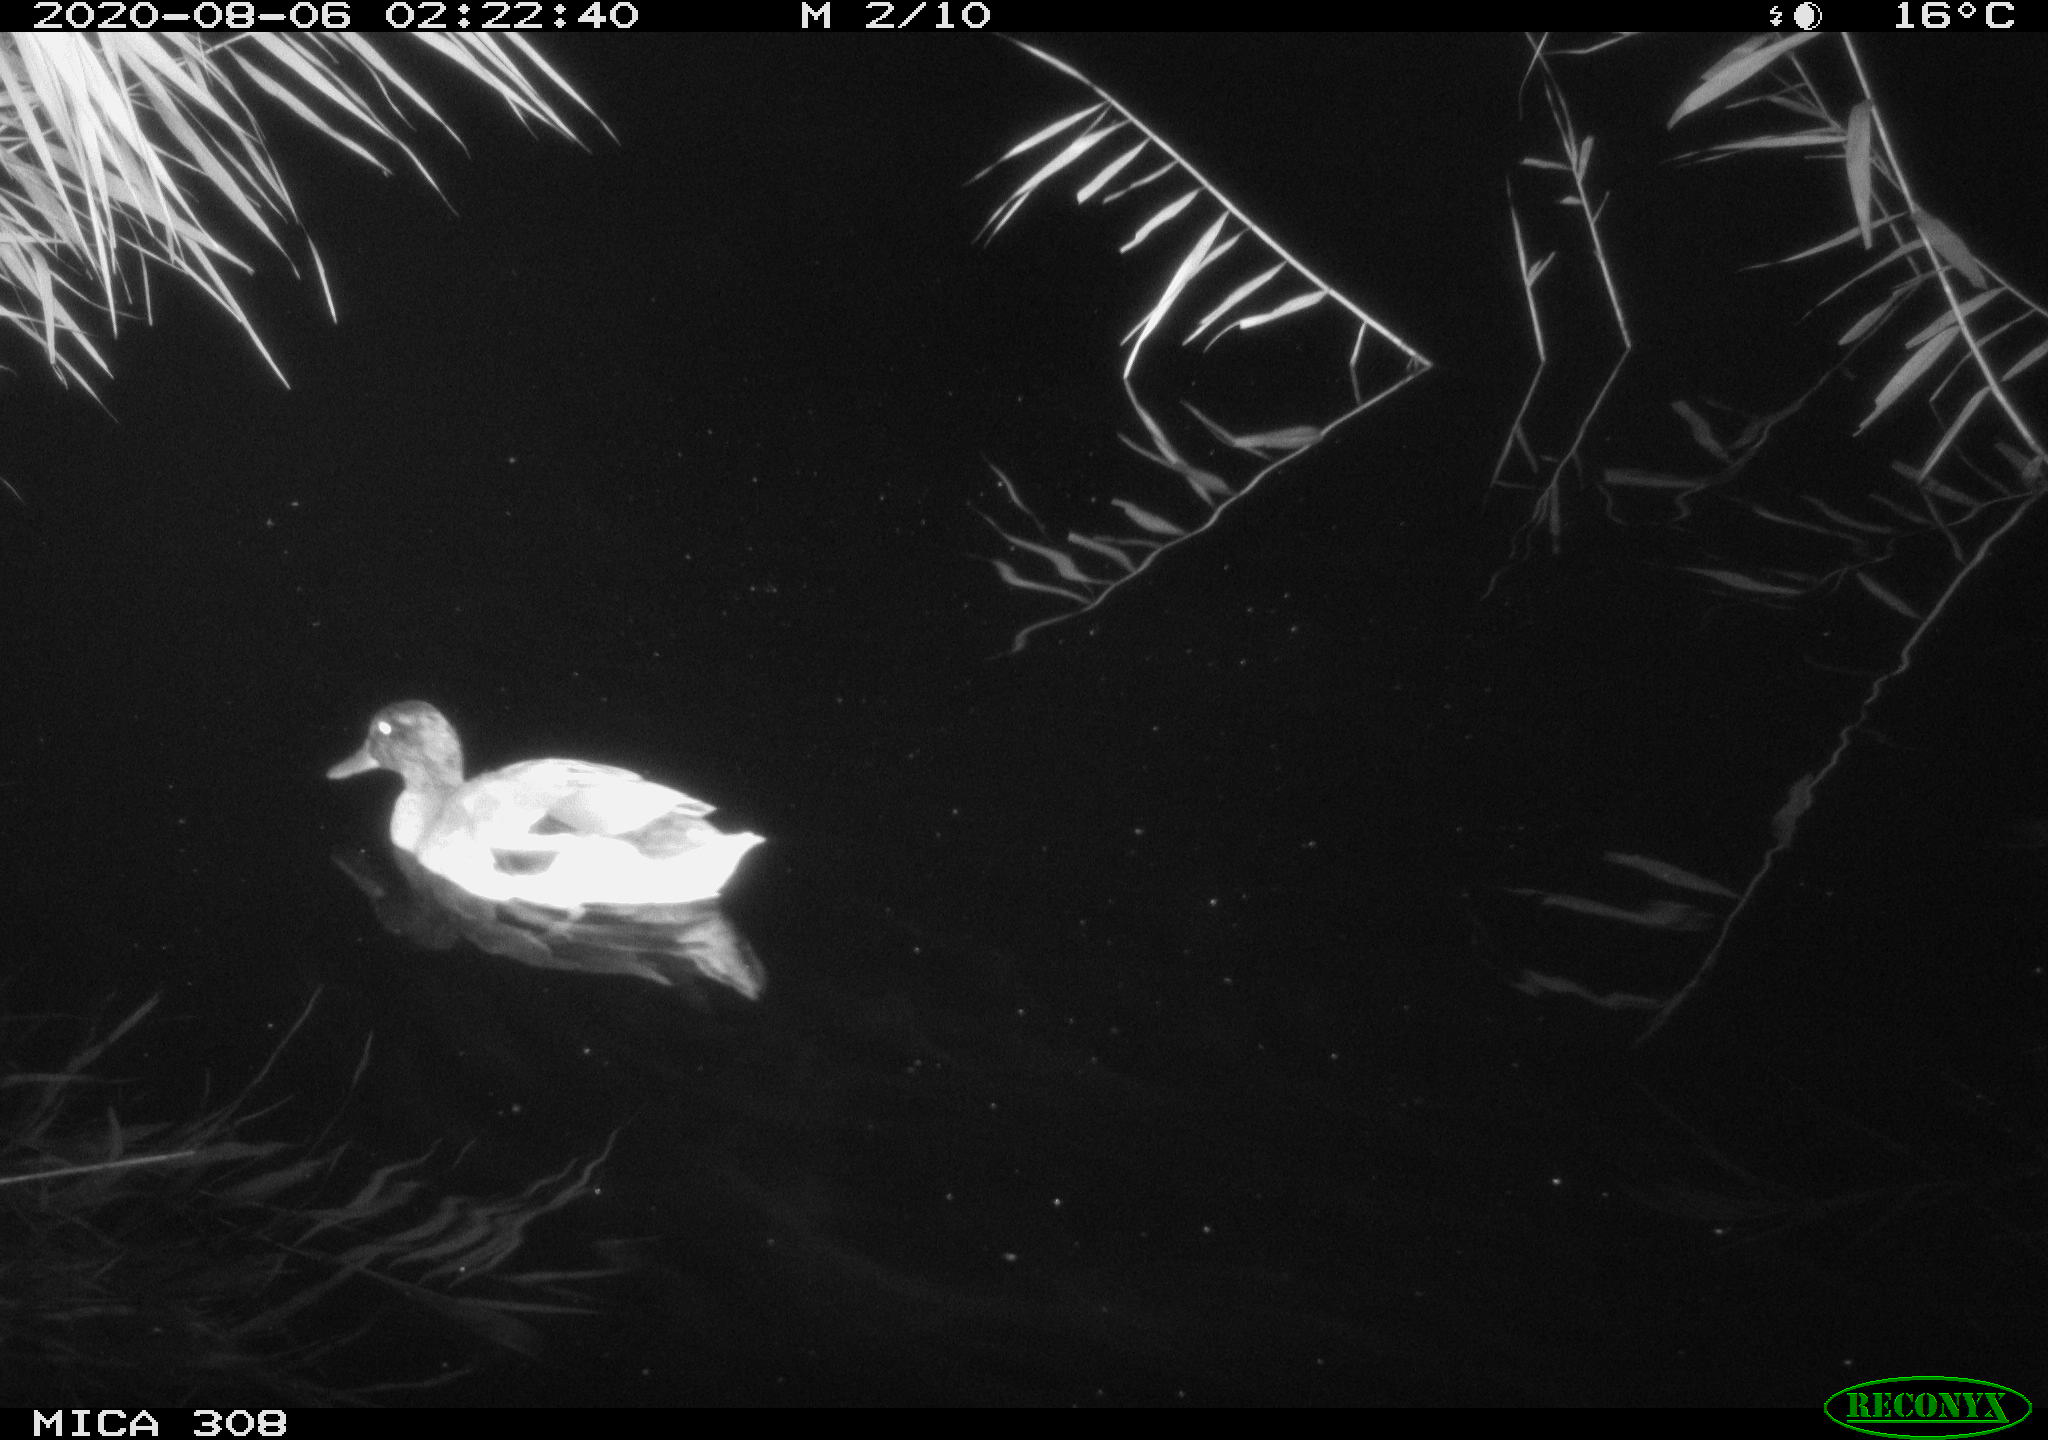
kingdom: Animalia
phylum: Chordata
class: Aves
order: Anseriformes
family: Anatidae
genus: Anas
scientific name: Anas platyrhynchos
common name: Mallard
